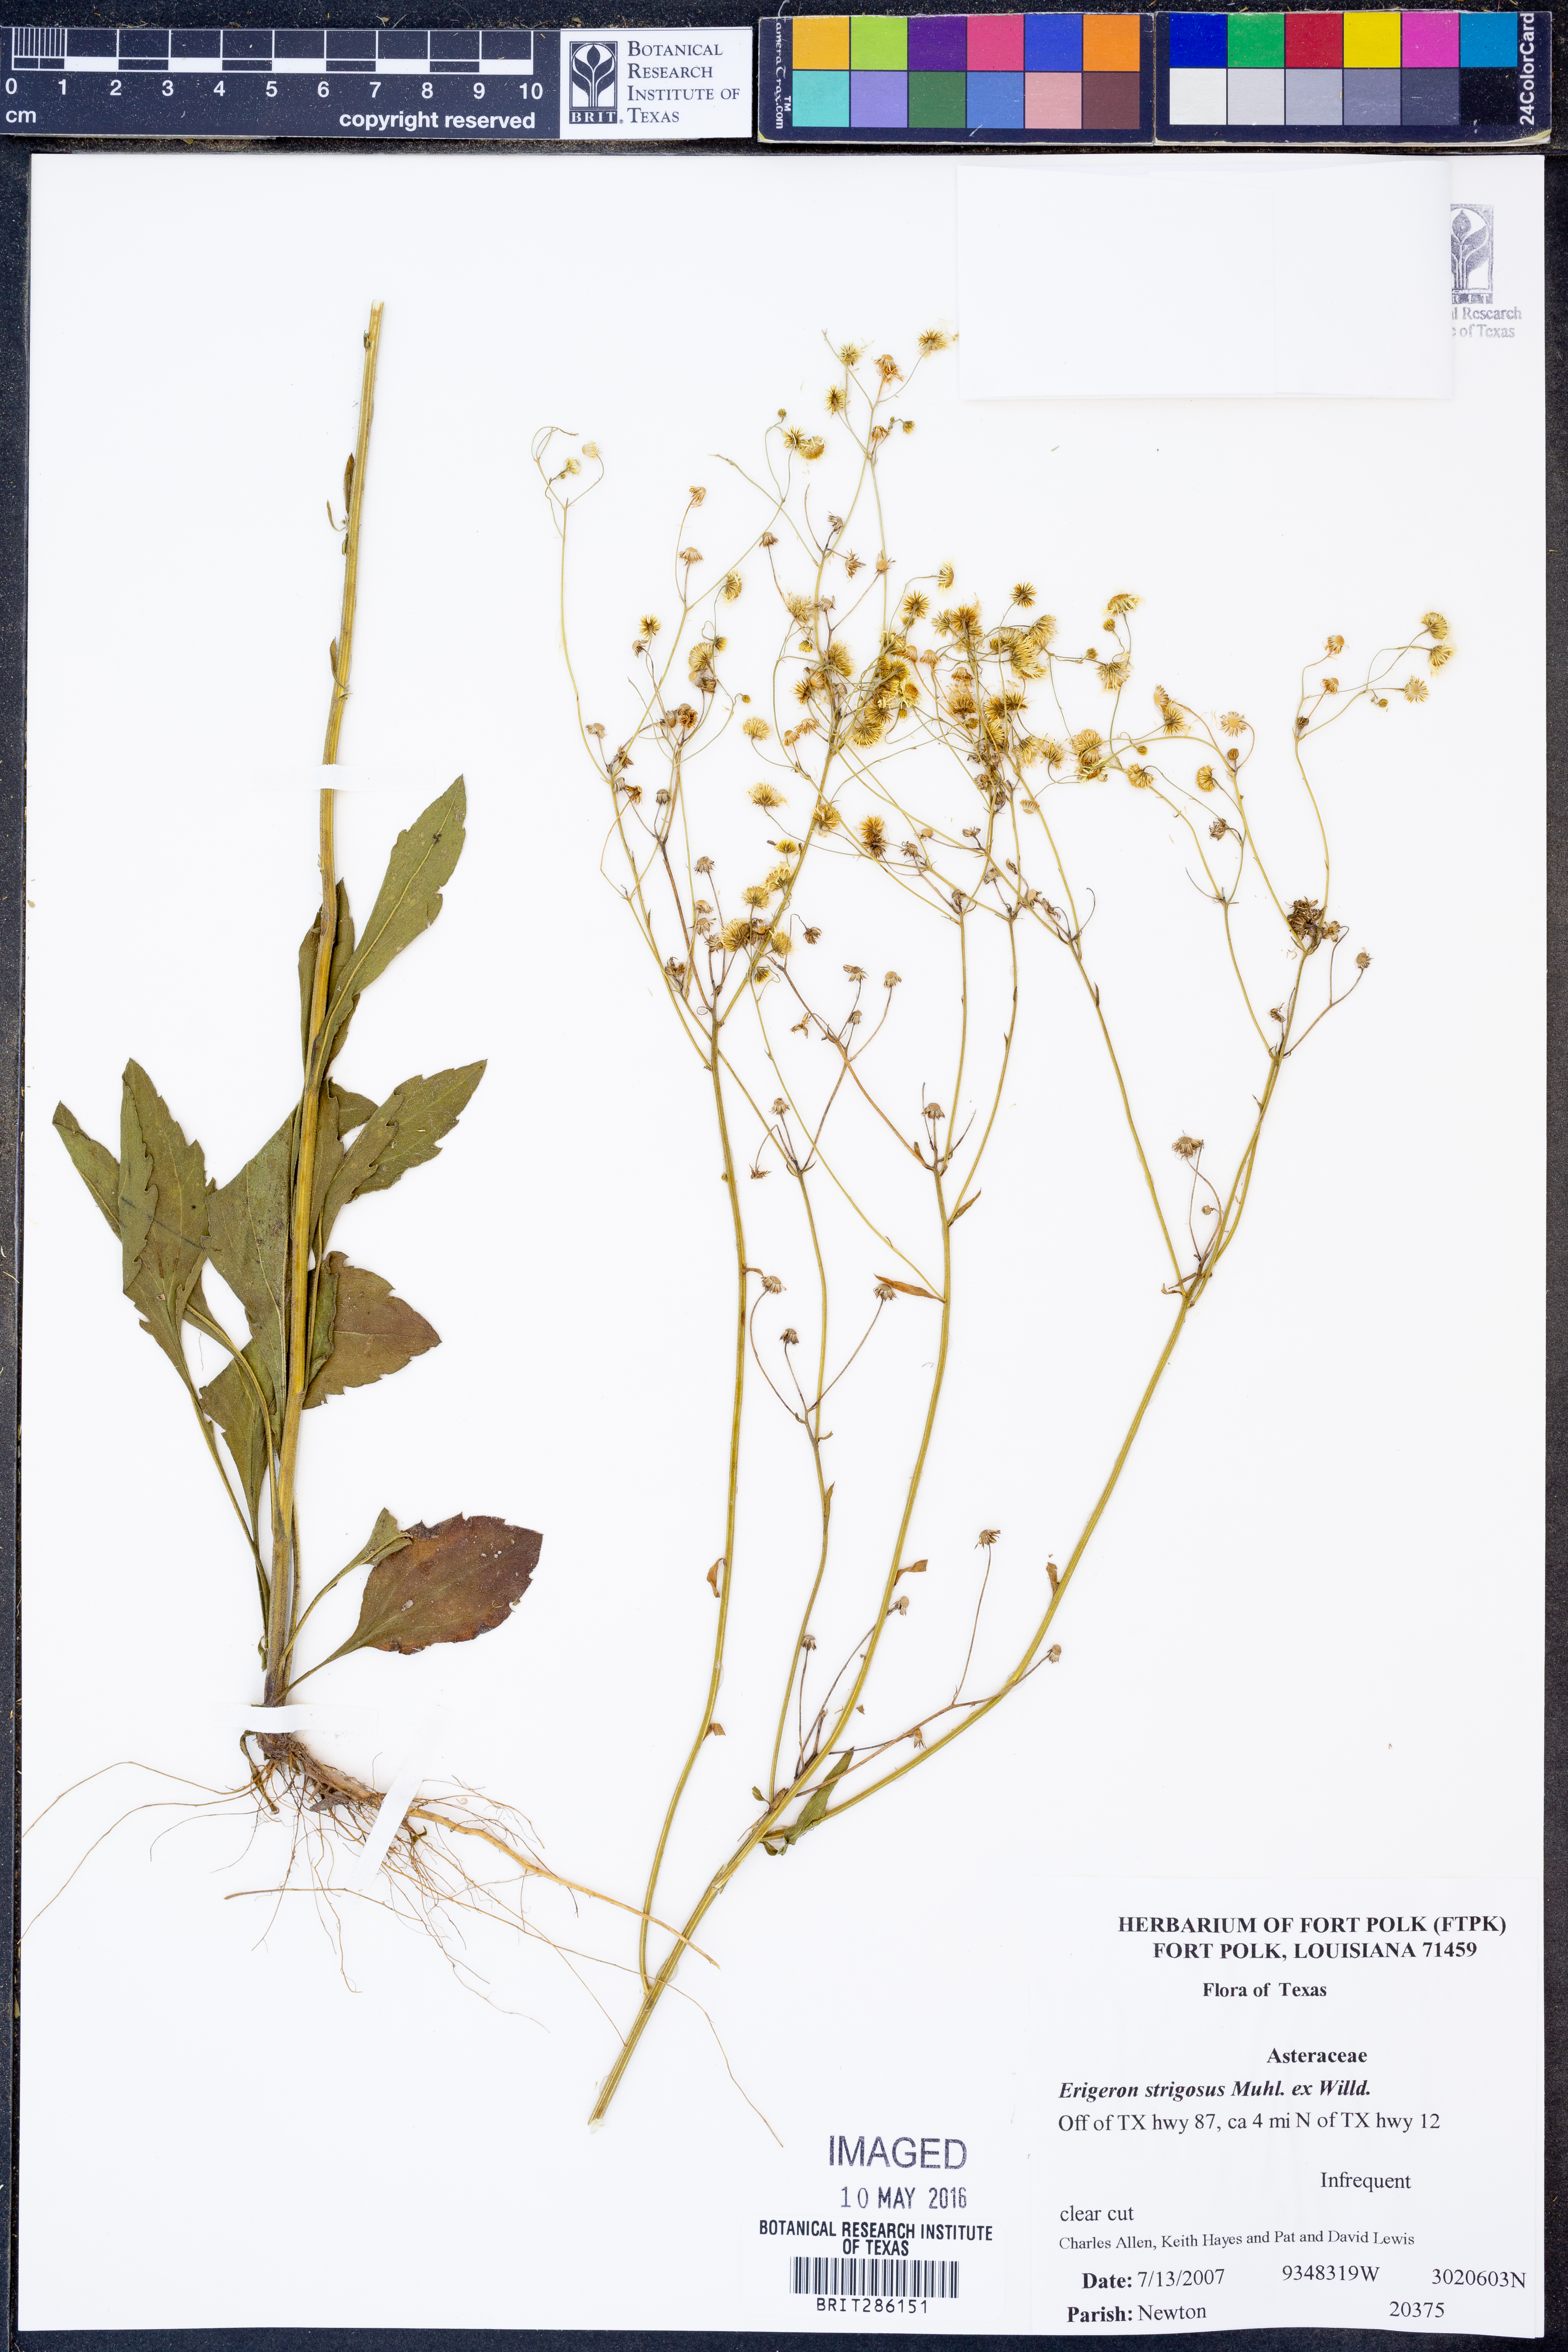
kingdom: Plantae
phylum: Tracheophyta
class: Magnoliopsida
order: Asterales
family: Asteraceae
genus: Erigeron
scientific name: Erigeron strigosus
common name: Common eastern fleabane
